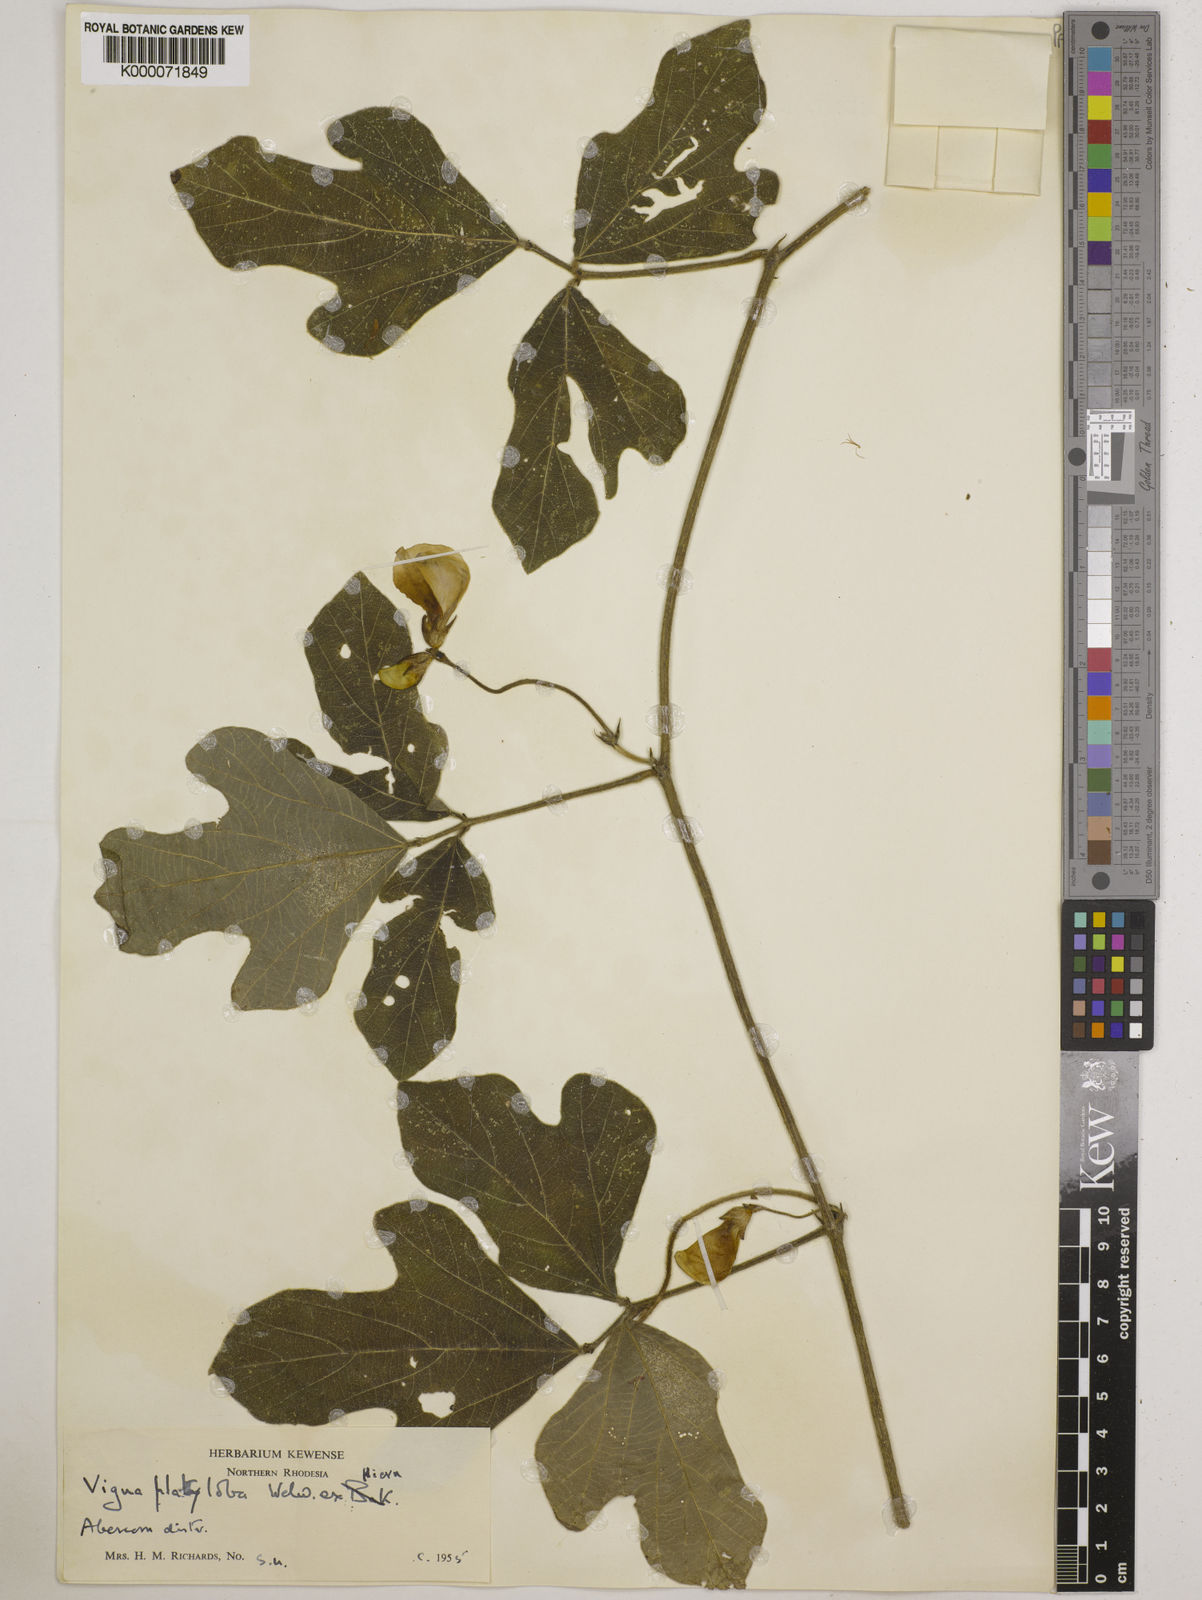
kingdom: Plantae
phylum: Tracheophyta
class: Magnoliopsida
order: Fabales
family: Fabaceae
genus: Vigna
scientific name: Vigna platyloba
